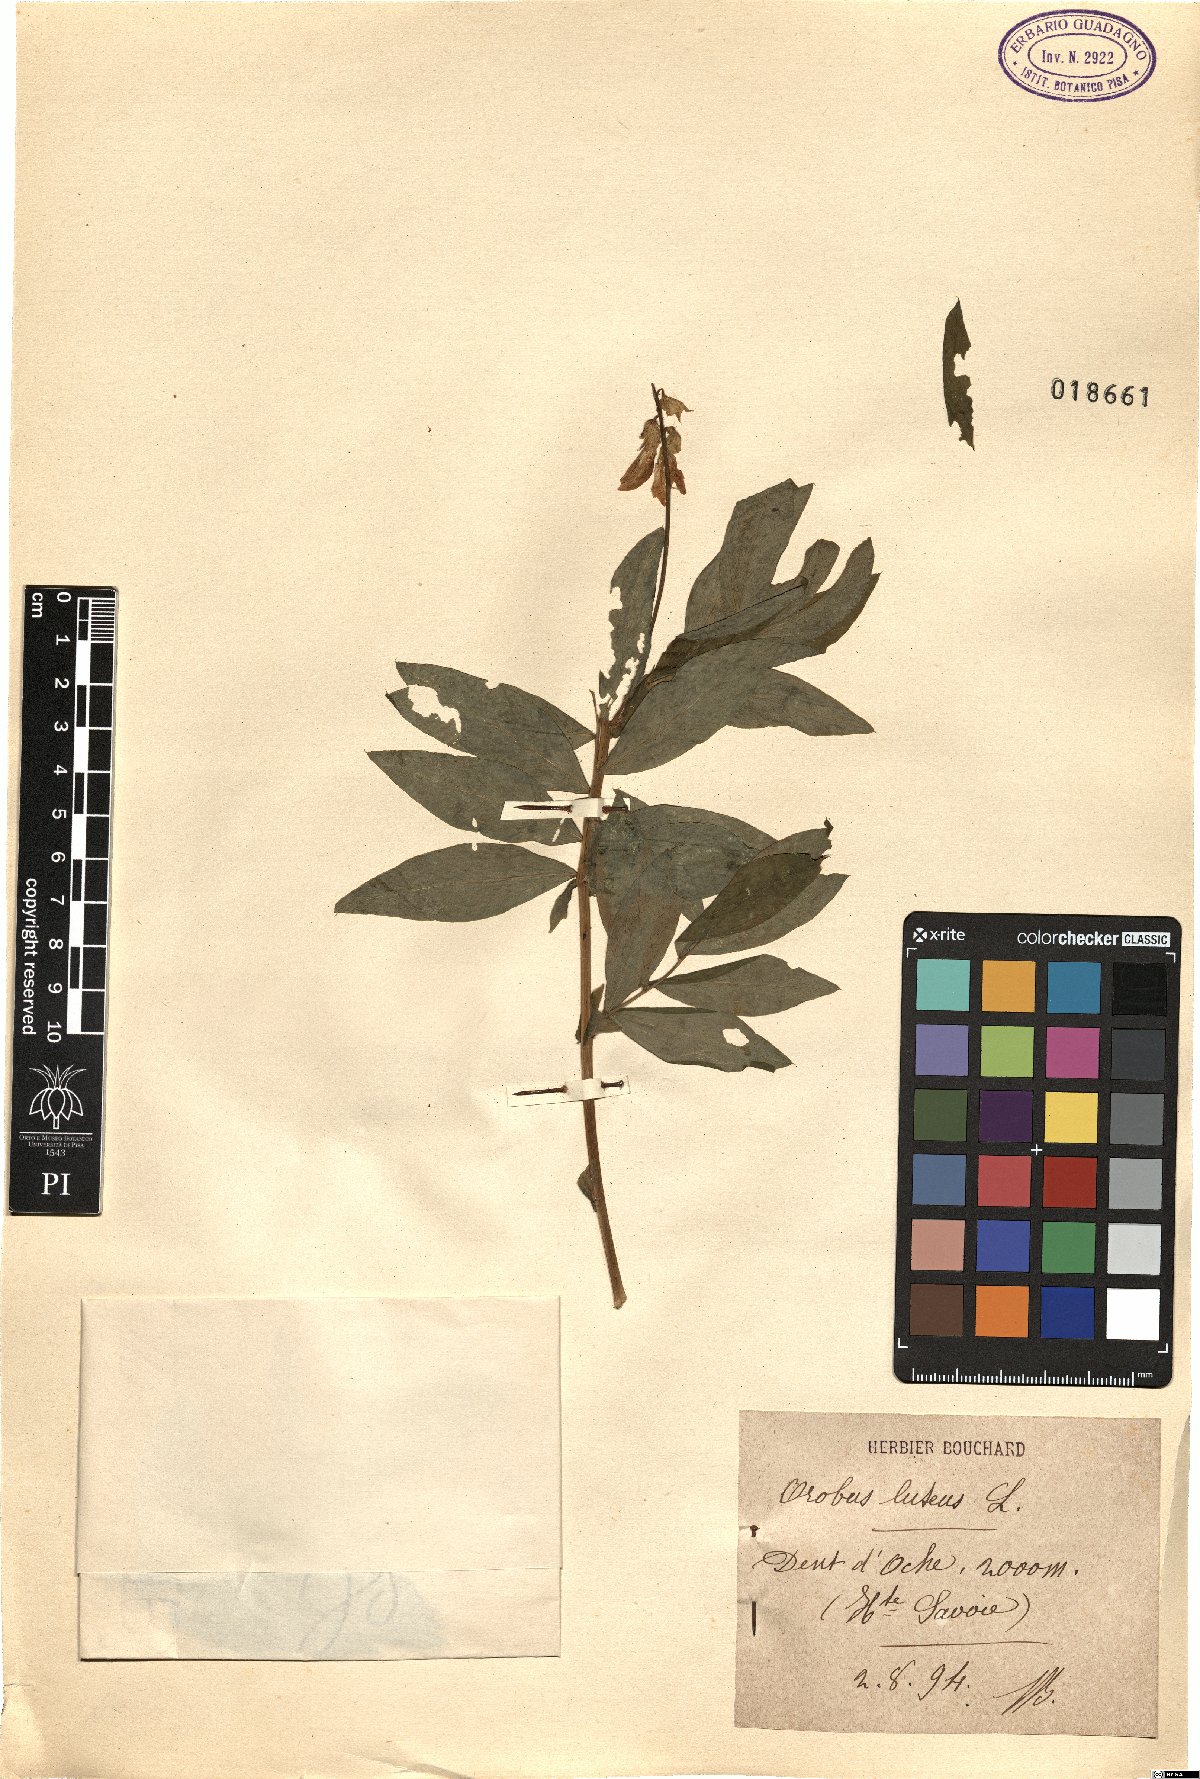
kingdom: Plantae
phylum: Tracheophyta
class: Magnoliopsida
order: Fabales
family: Fabaceae
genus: Lathyrus
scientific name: Lathyrus linifolius
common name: Bitter-vetch
